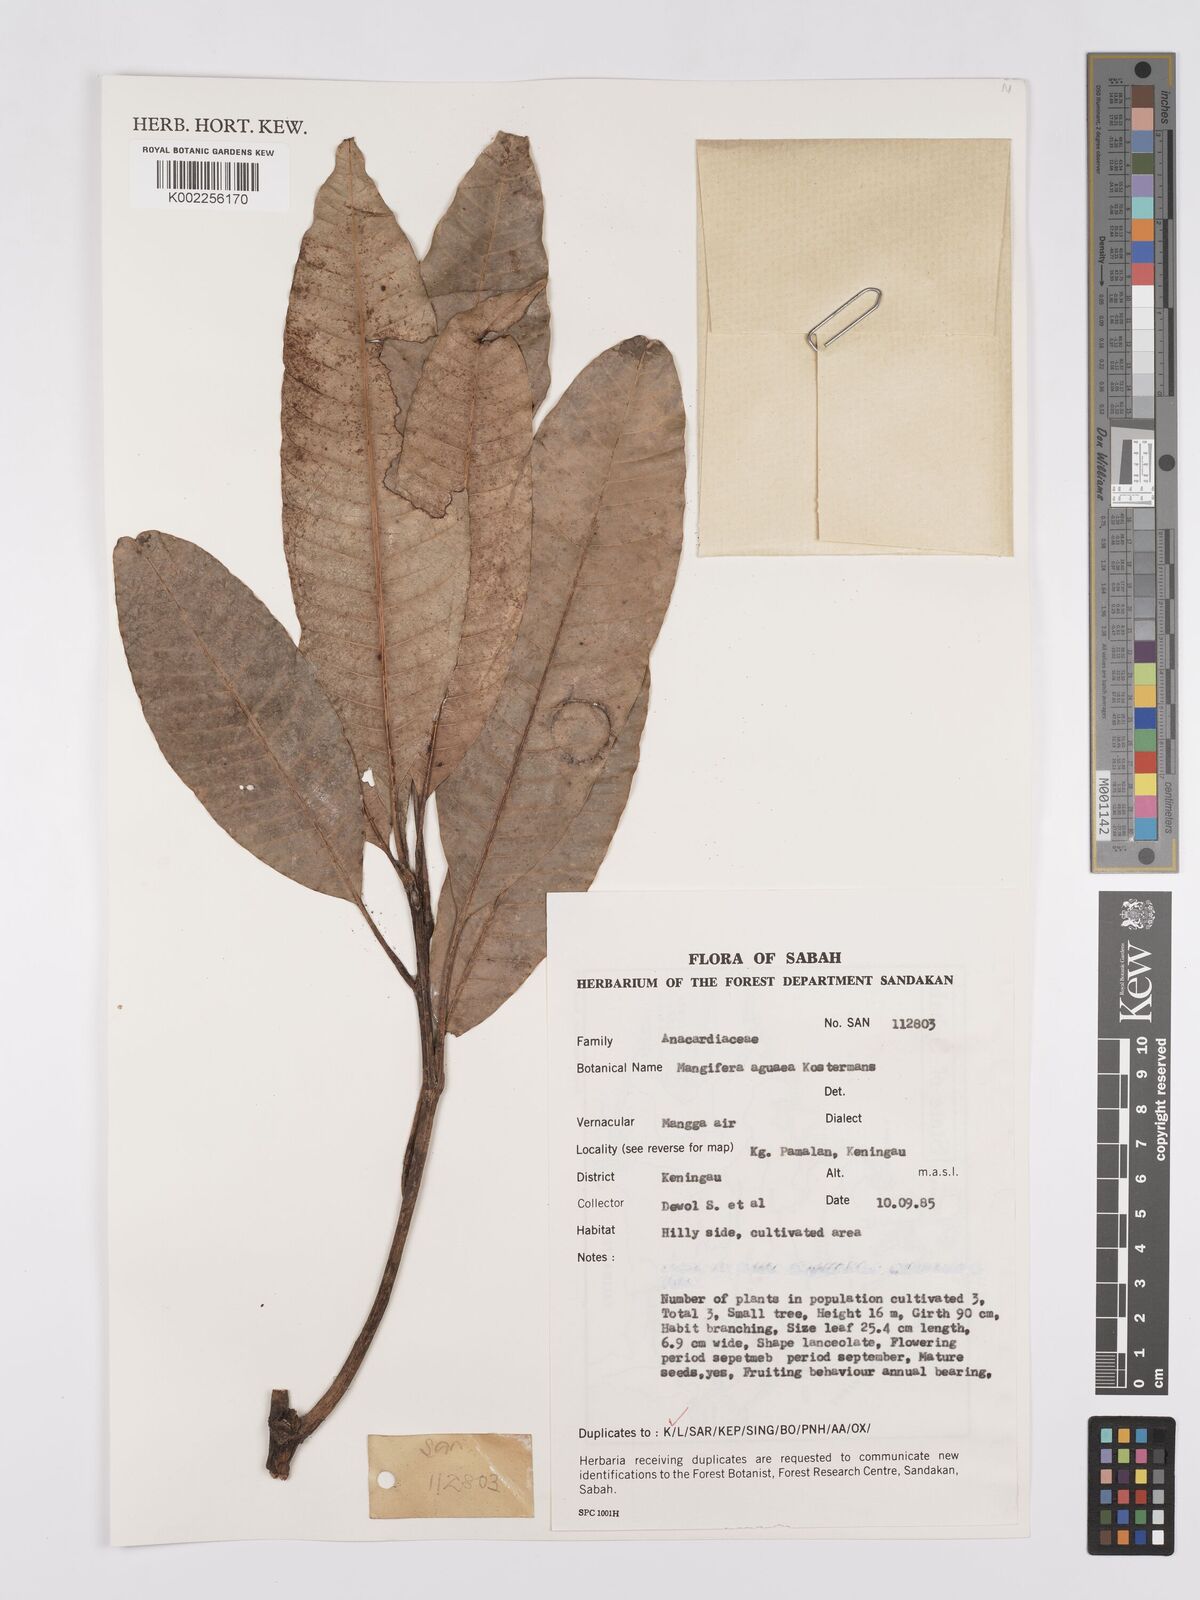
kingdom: Plantae
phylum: Tracheophyta
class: Magnoliopsida
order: Sapindales
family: Anacardiaceae
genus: Mangifera
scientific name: Mangifera laurina
